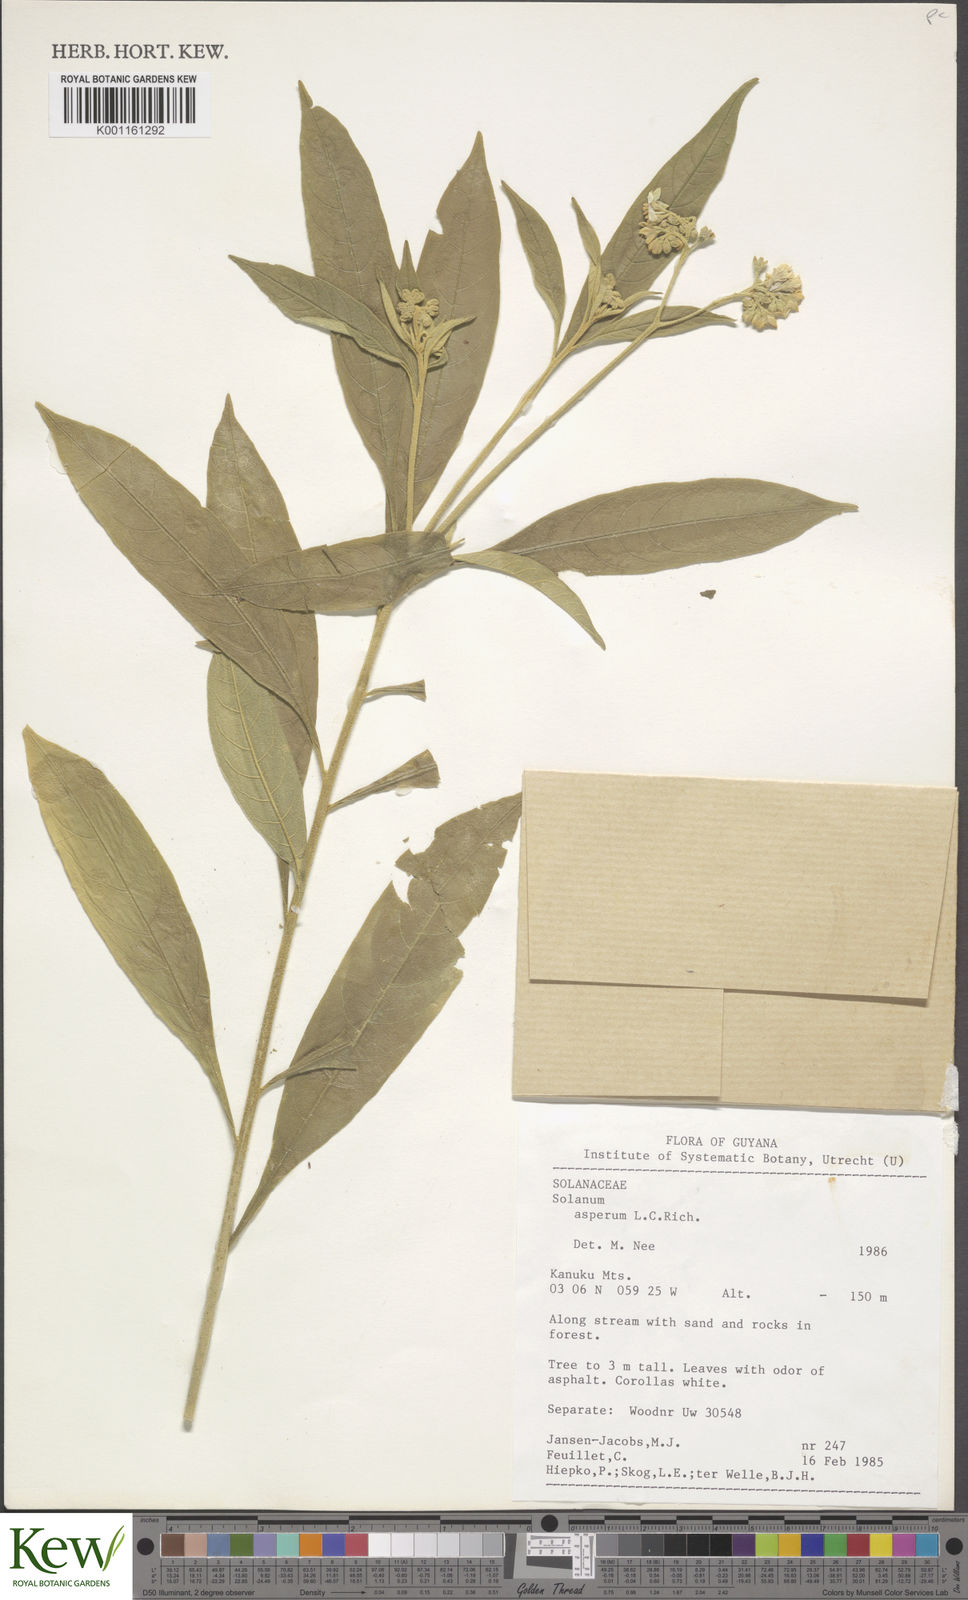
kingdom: Plantae
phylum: Tracheophyta
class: Magnoliopsida
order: Solanales
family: Solanaceae
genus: Solanum
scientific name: Solanum asperum
